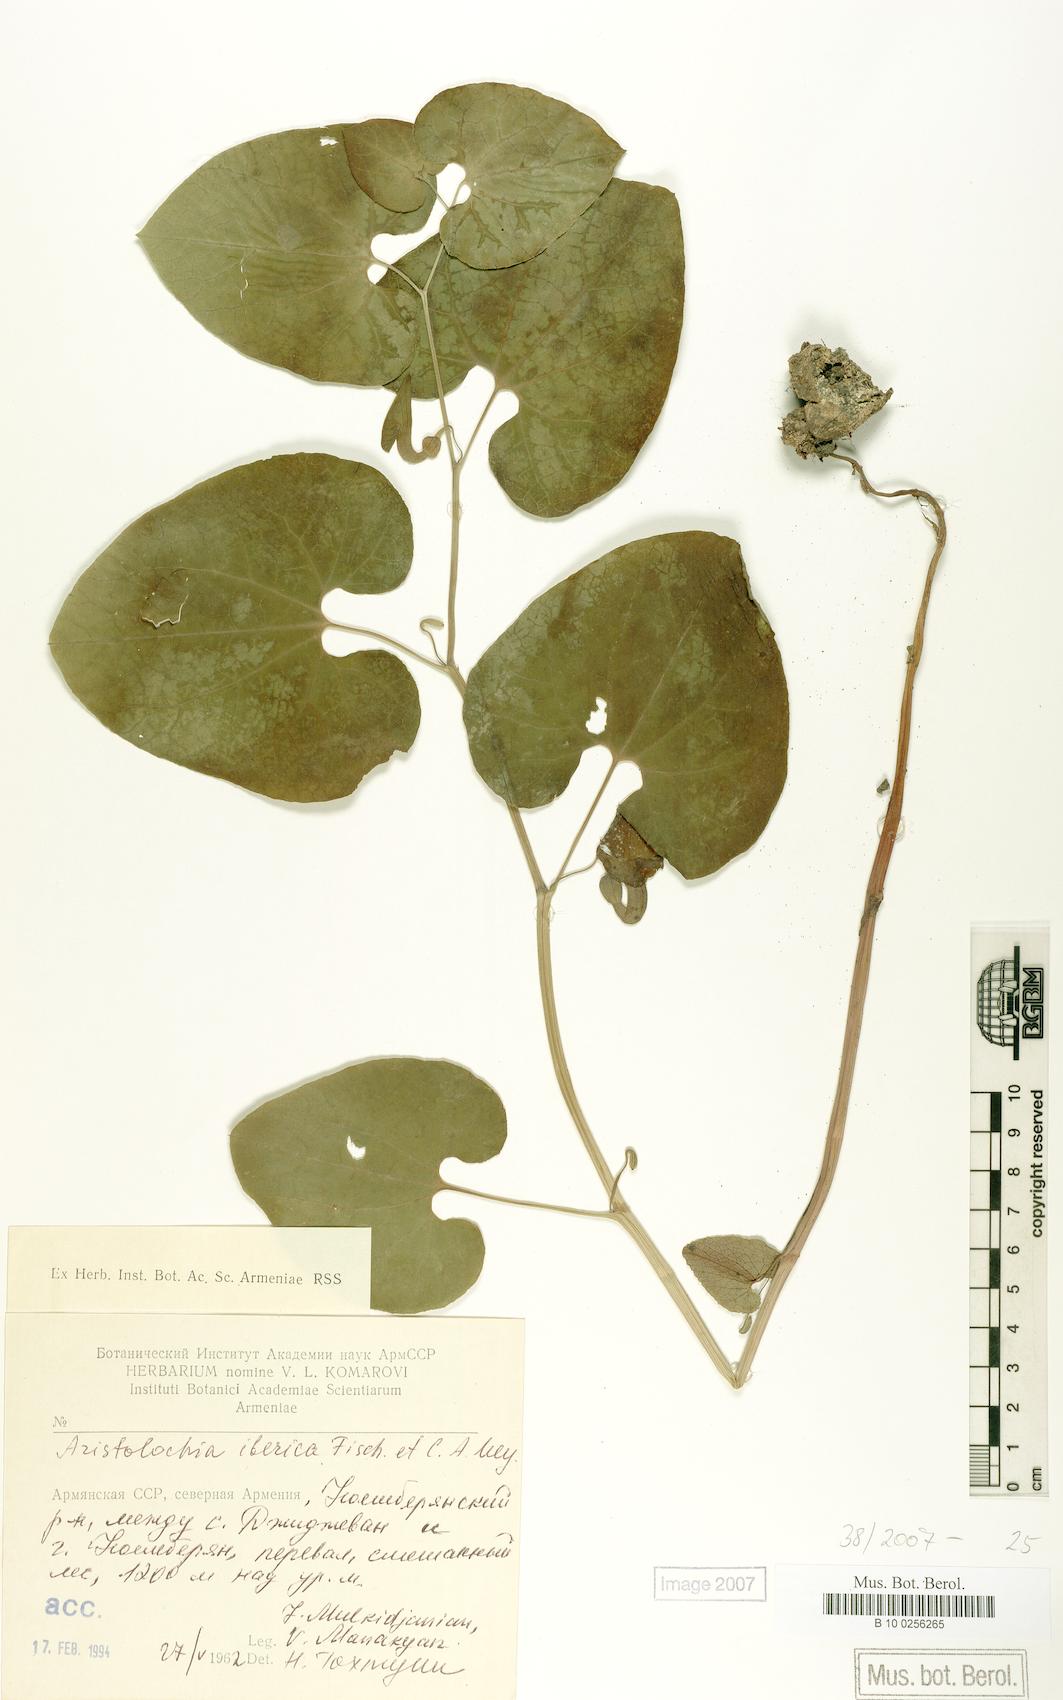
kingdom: Plantae
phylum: Tracheophyta
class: Magnoliopsida
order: Piperales
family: Aristolochiaceae
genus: Aristolochia
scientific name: Aristolochia iberica
